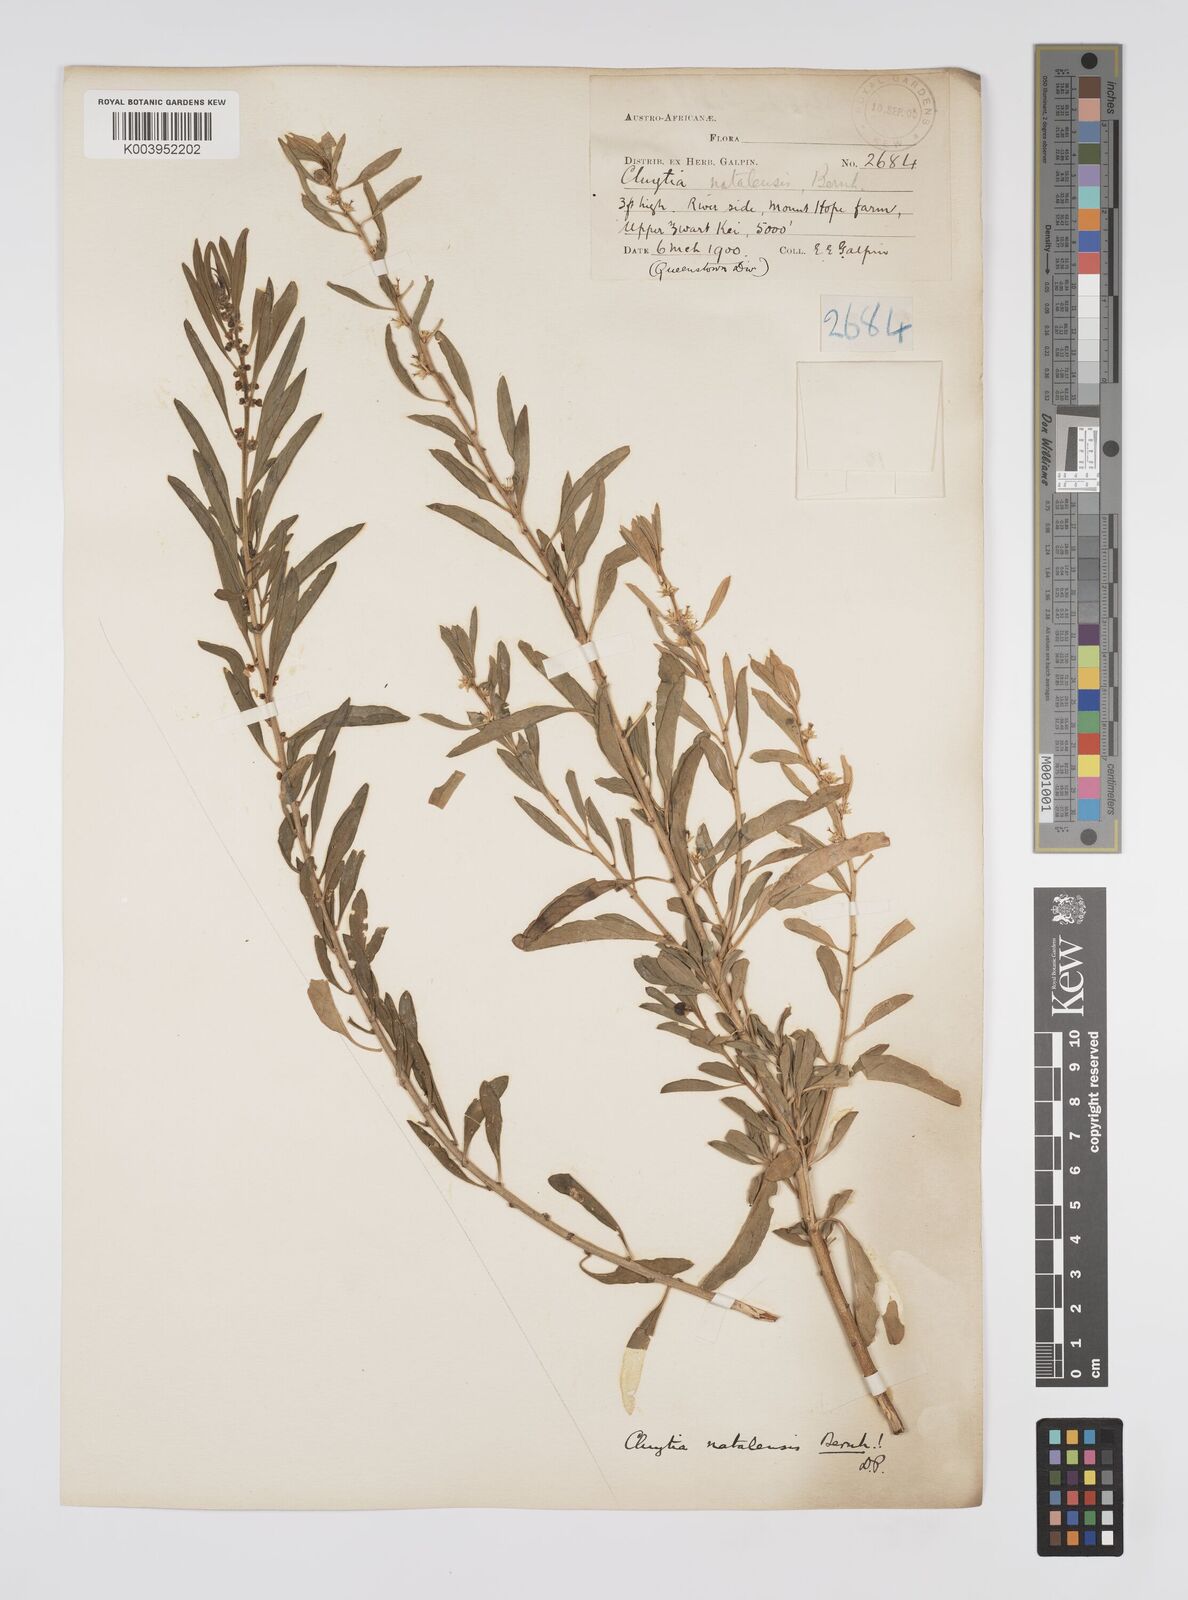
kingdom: Plantae
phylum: Tracheophyta
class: Magnoliopsida
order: Malpighiales
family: Peraceae
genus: Clutia
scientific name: Clutia natalensis
